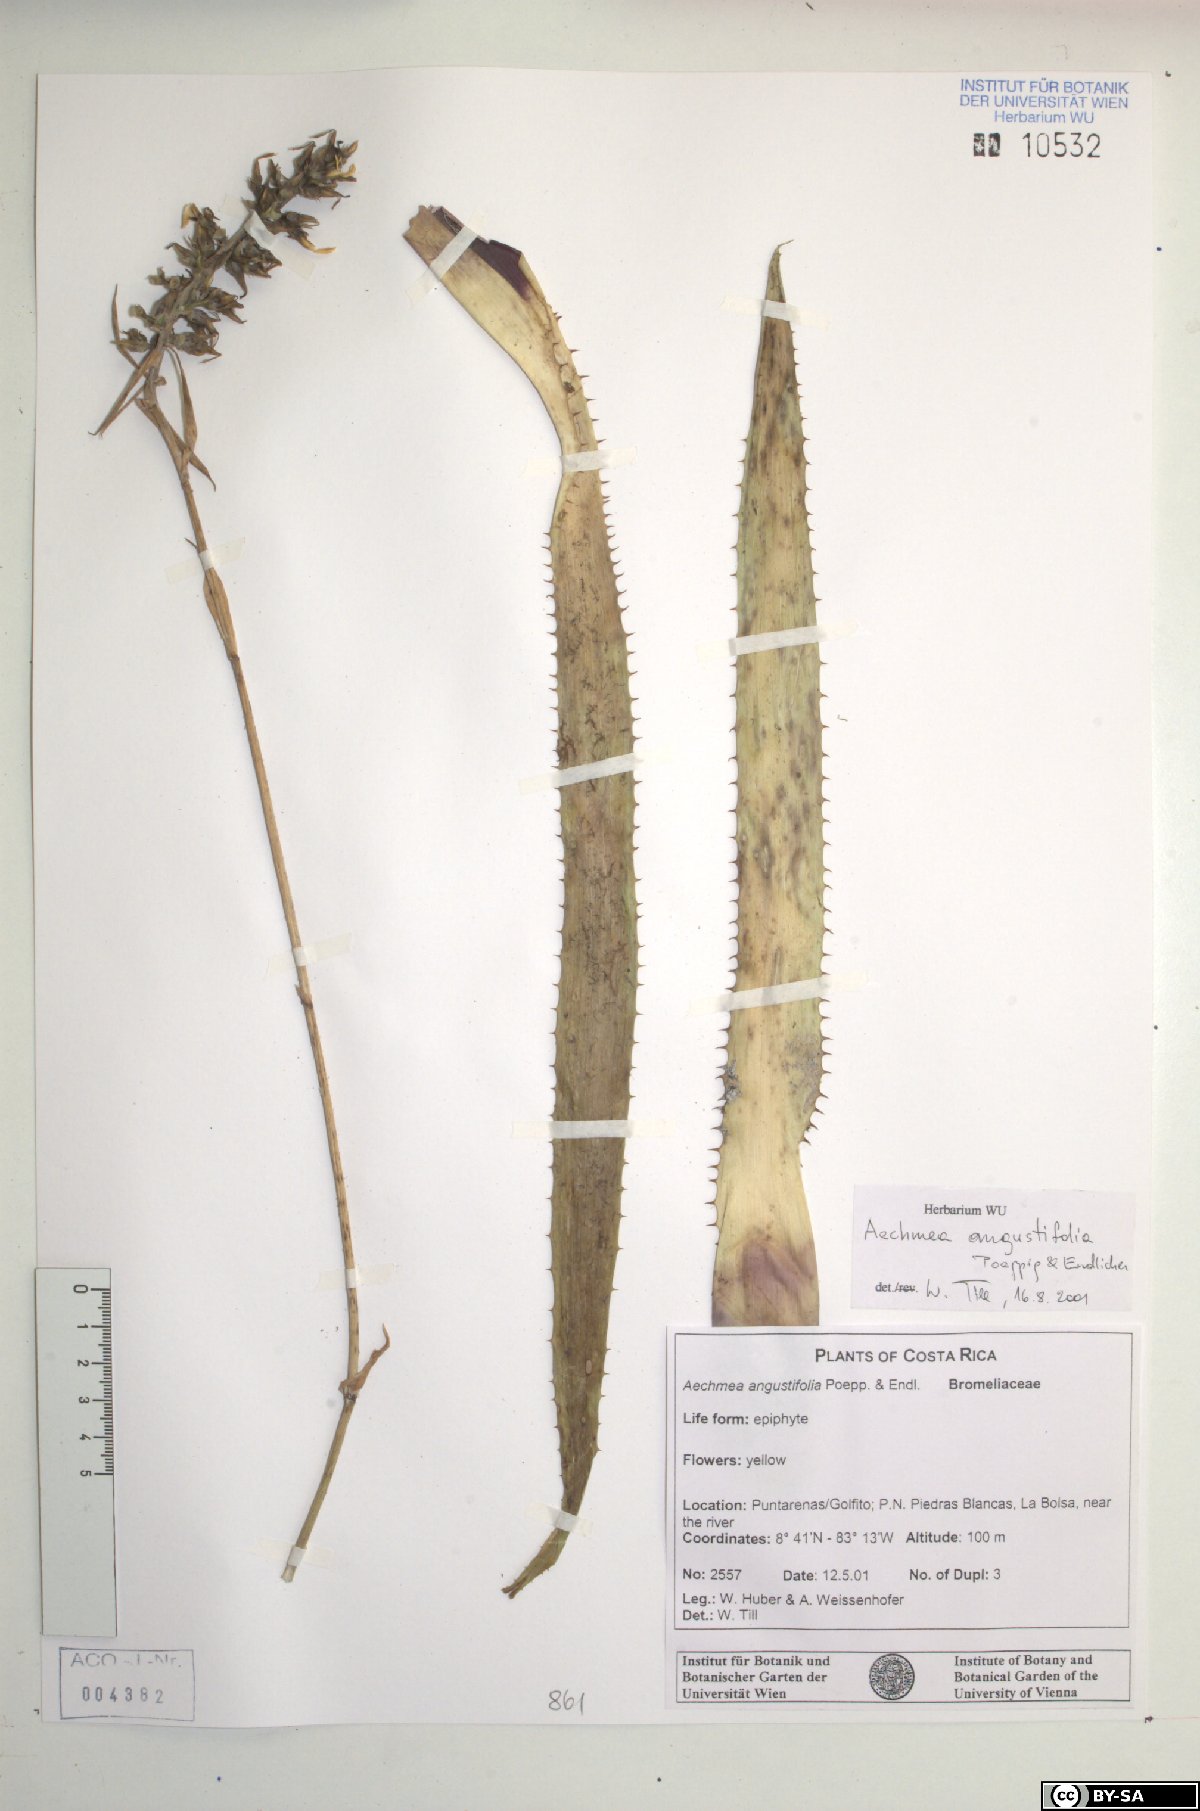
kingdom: Plantae
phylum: Tracheophyta
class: Liliopsida
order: Poales
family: Bromeliaceae
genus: Aechmea
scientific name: Aechmea angustifolia
